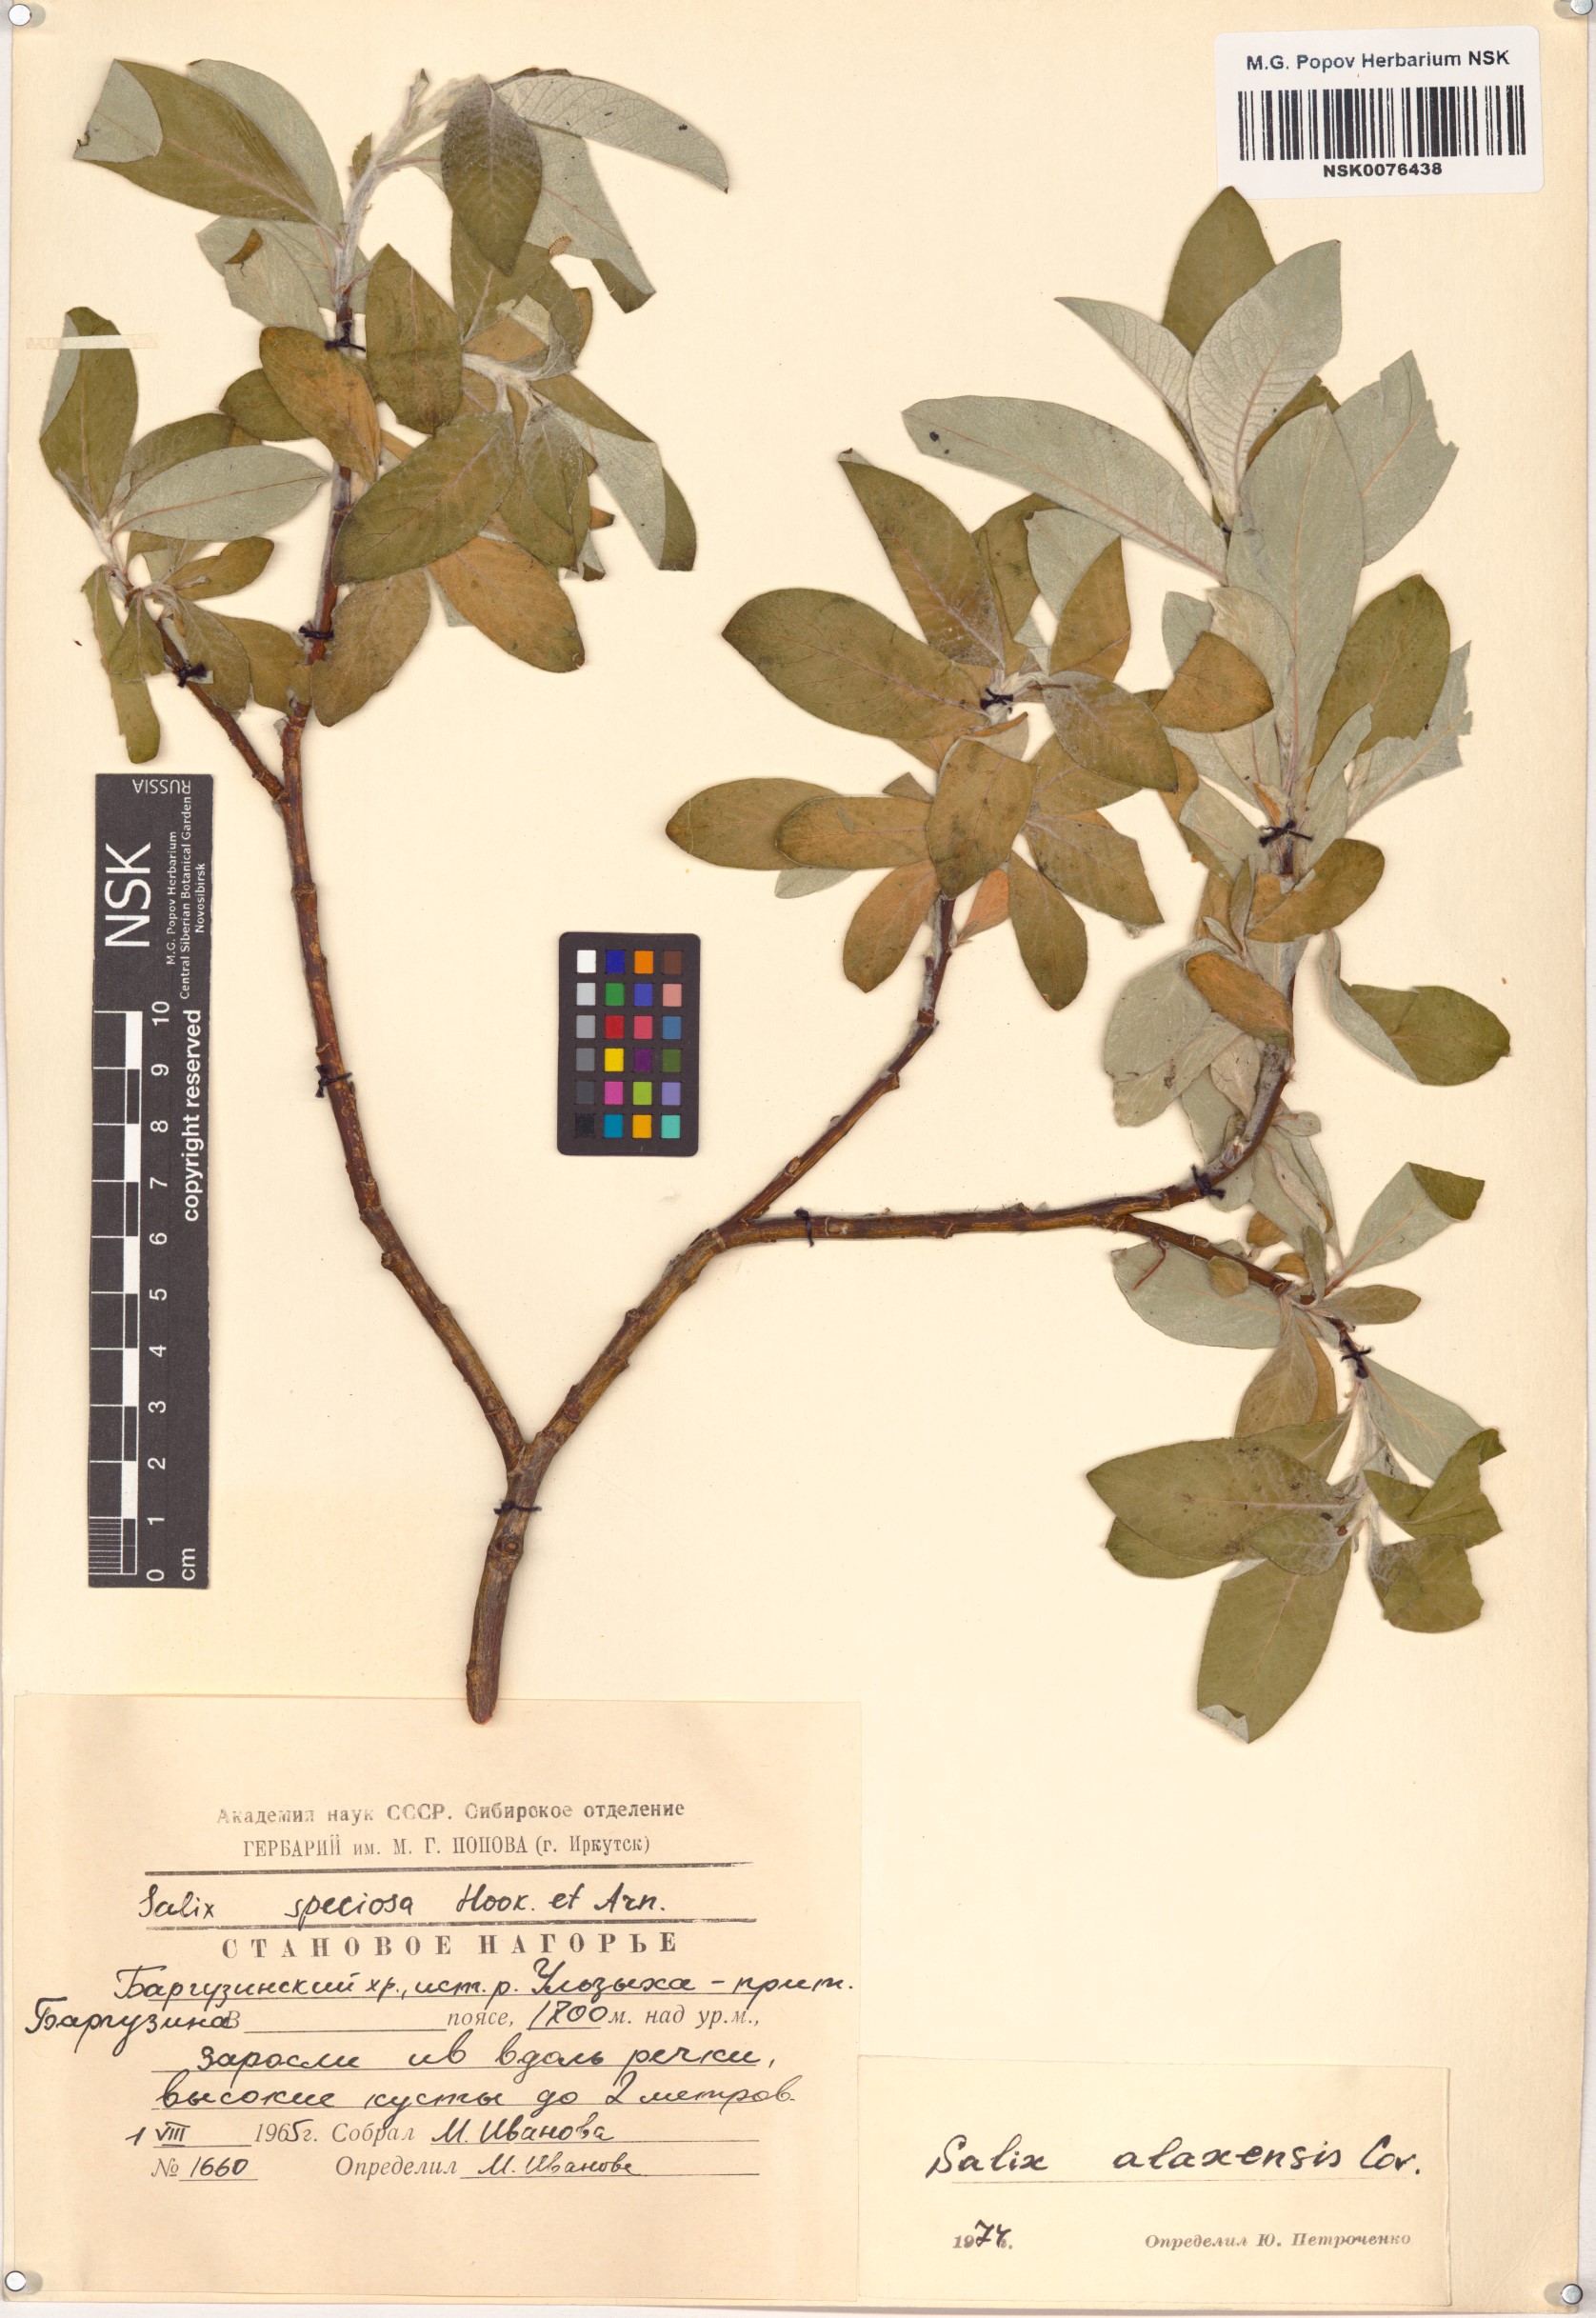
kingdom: Plantae
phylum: Tracheophyta
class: Magnoliopsida
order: Malpighiales
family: Salicaceae
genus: Salix
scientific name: Salix alaxensis
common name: Feltleaf willow
